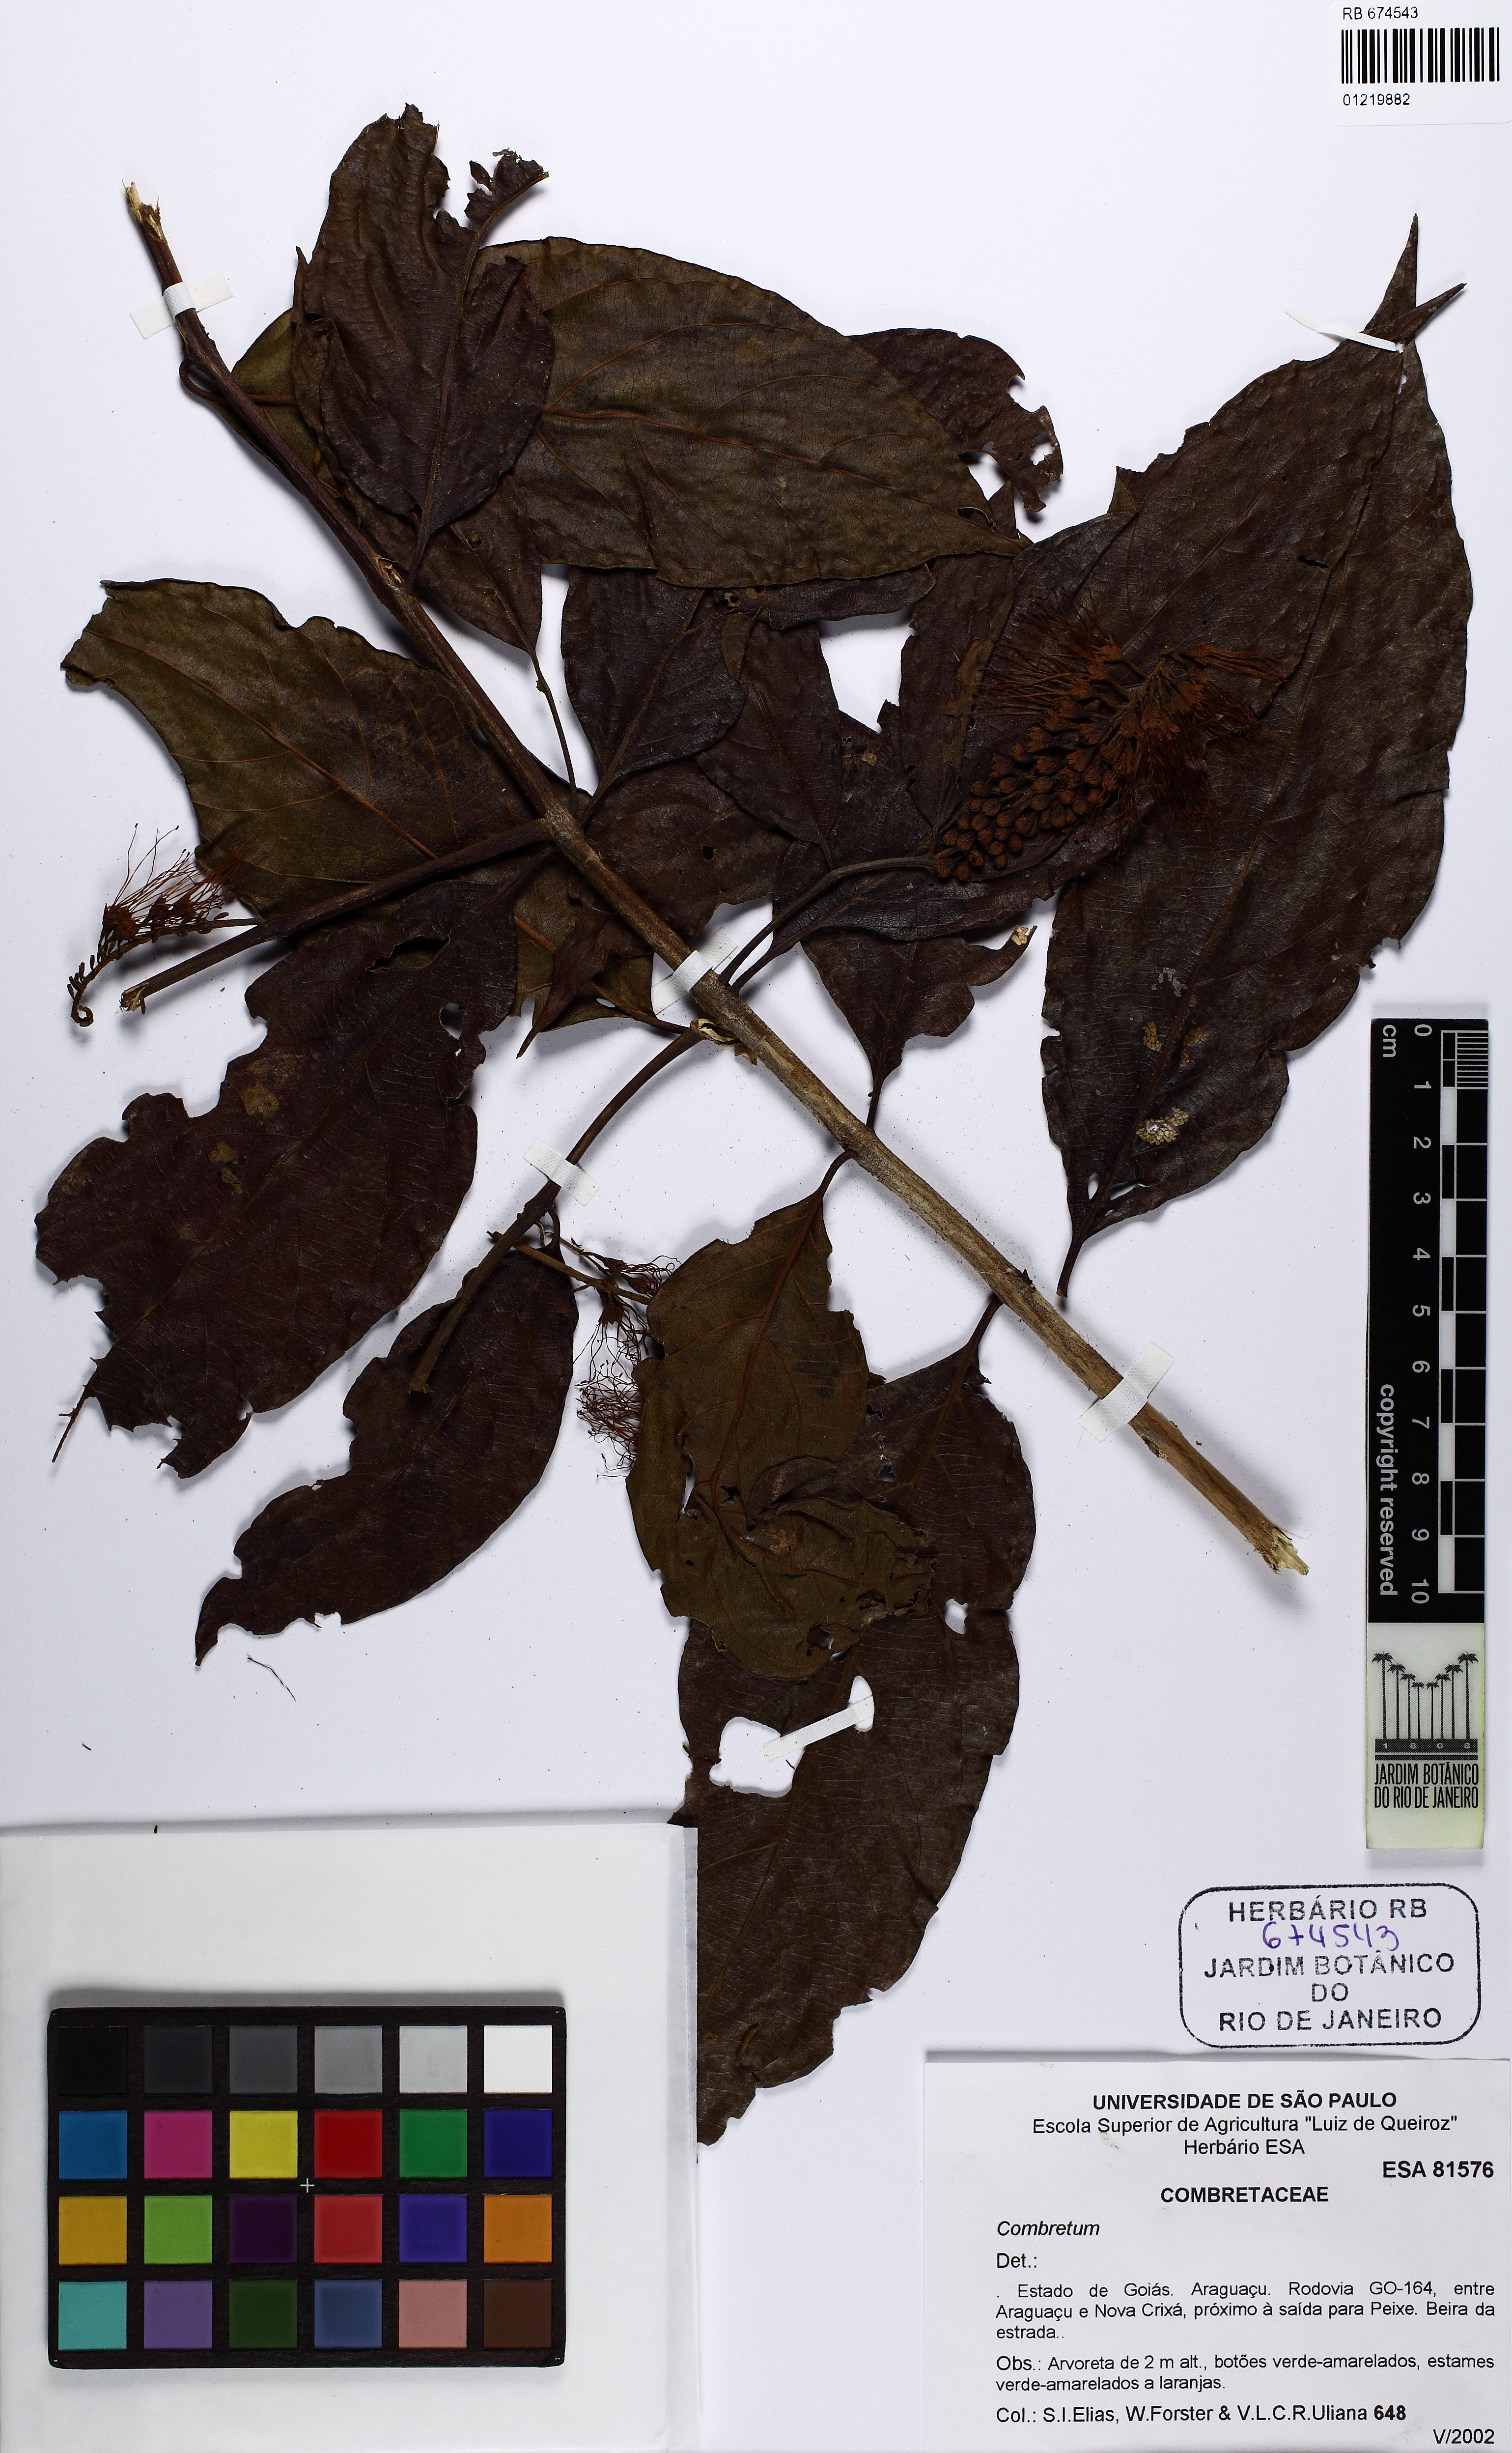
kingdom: Plantae
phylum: Tracheophyta
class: Magnoliopsida
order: Myrtales
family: Combretaceae
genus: Combretum
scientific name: Combretum
